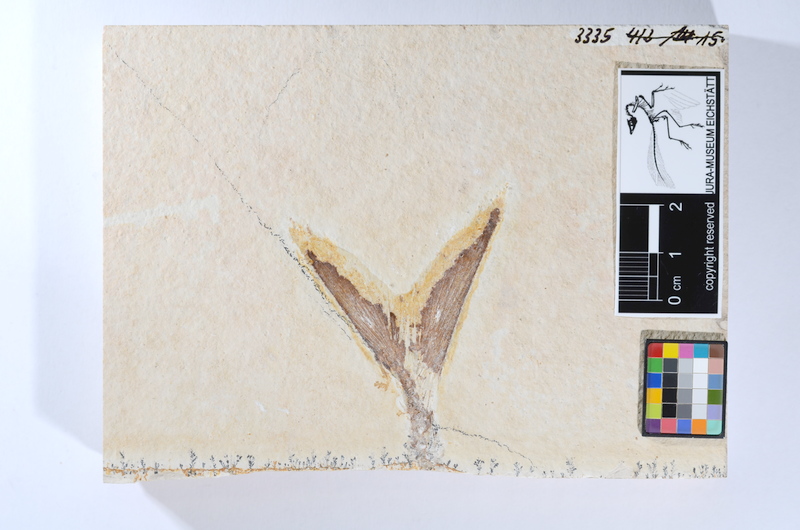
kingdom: Animalia
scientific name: Animalia
